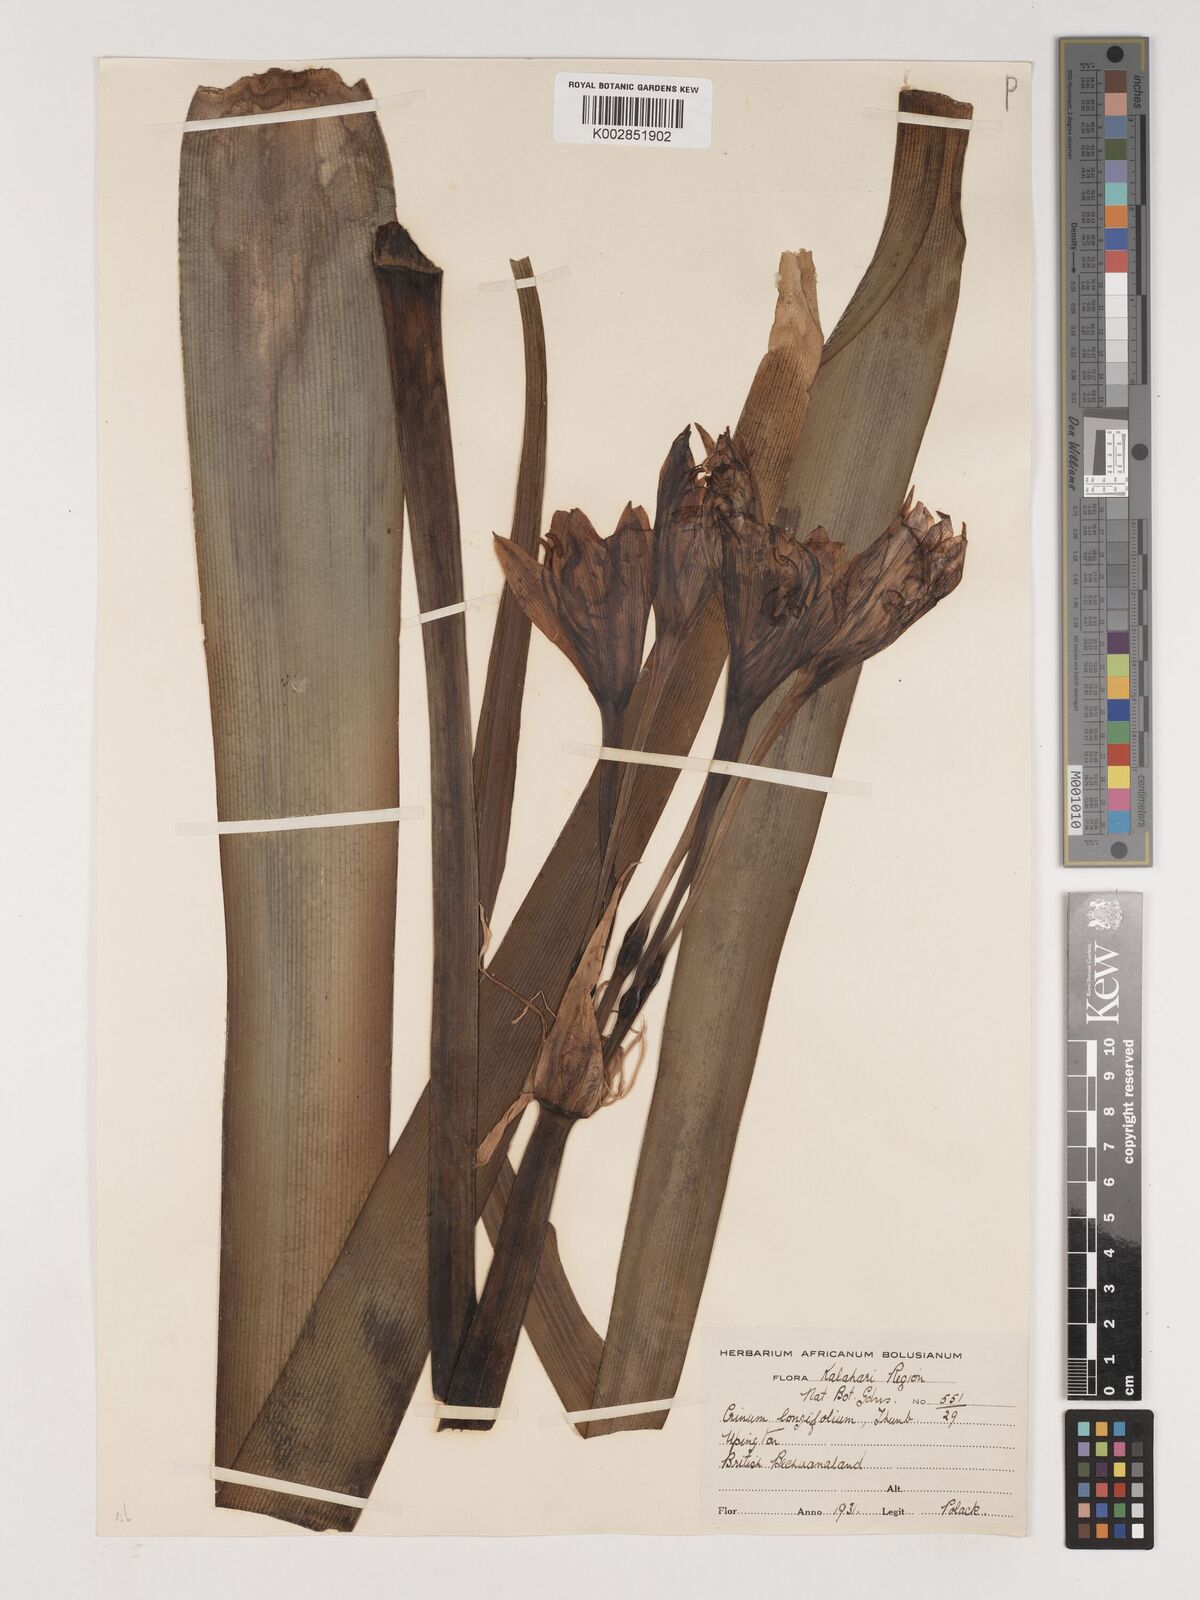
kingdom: Plantae
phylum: Tracheophyta
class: Liliopsida
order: Asparagales
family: Amaryllidaceae
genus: Crinum
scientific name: Crinum bulbispermum
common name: Hardy swamplily
